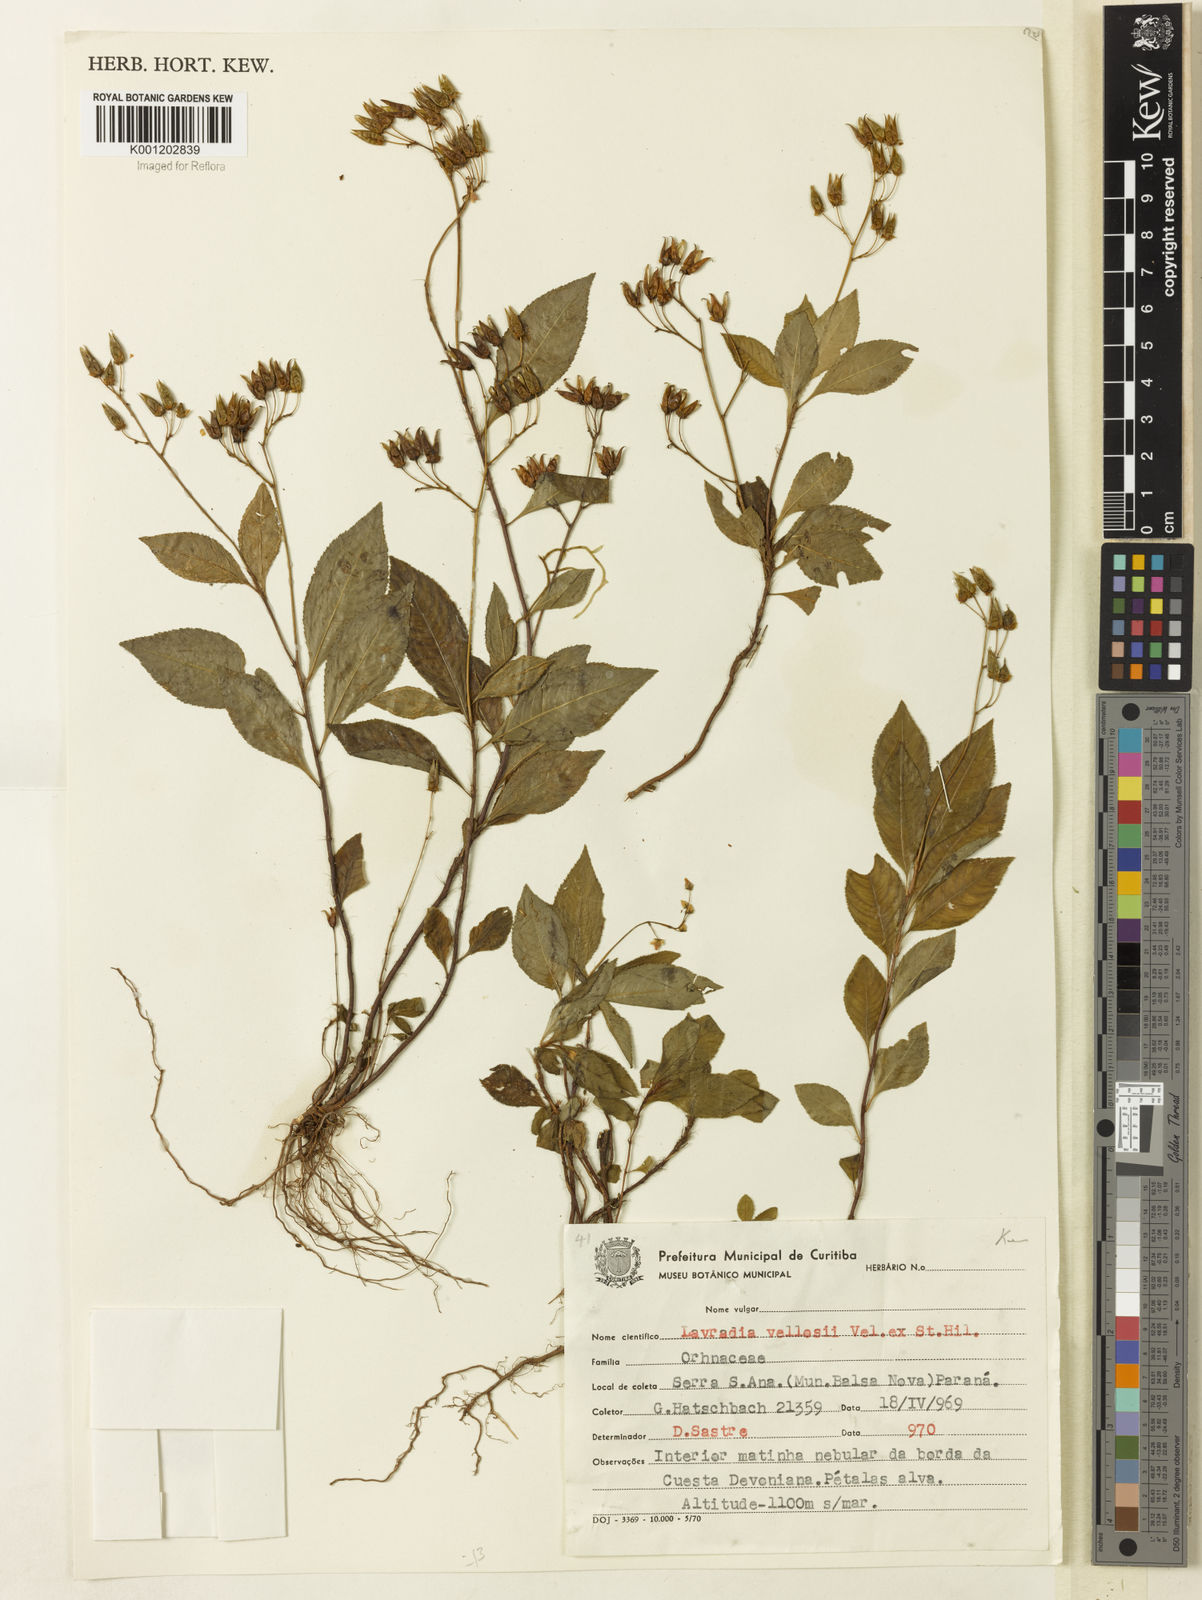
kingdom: Plantae
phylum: Tracheophyta
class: Magnoliopsida
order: Malpighiales
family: Ochnaceae
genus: Sauvagesia
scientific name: Sauvagesia
